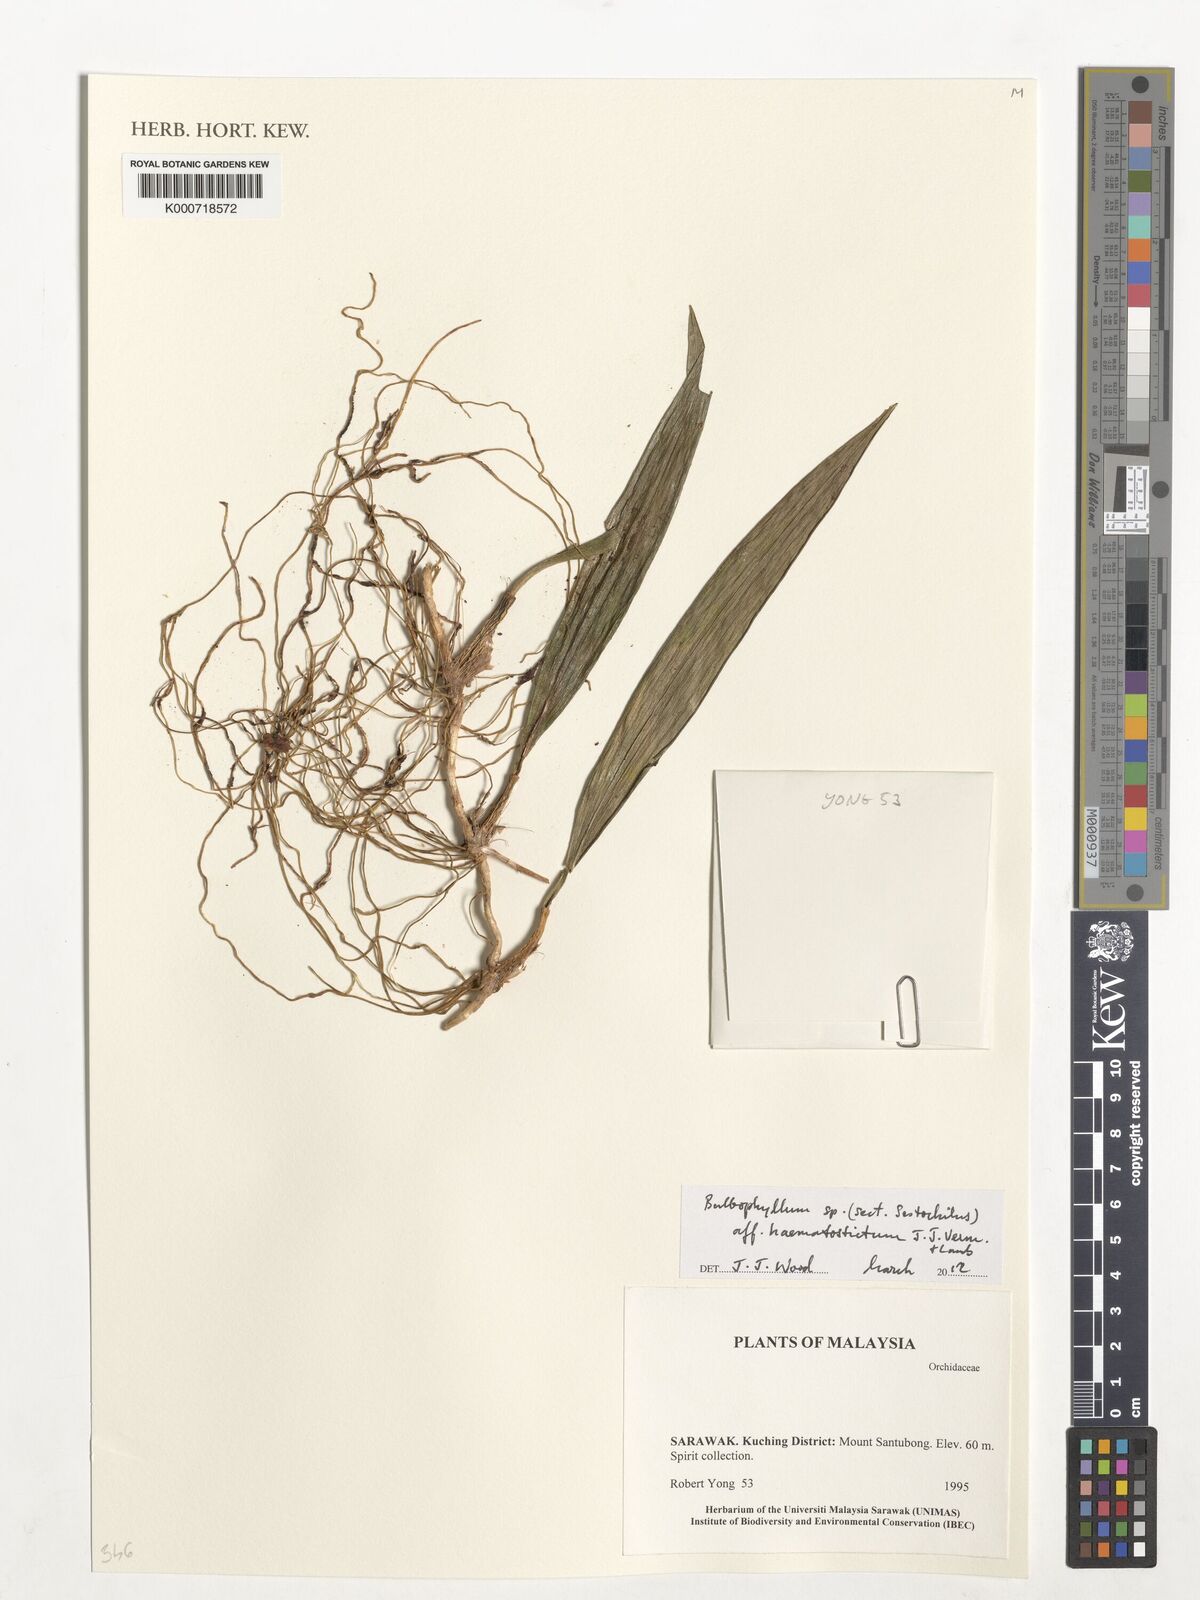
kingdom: Plantae
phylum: Tracheophyta
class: Liliopsida
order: Asparagales
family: Orchidaceae
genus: Bulbophyllum
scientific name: Bulbophyllum
